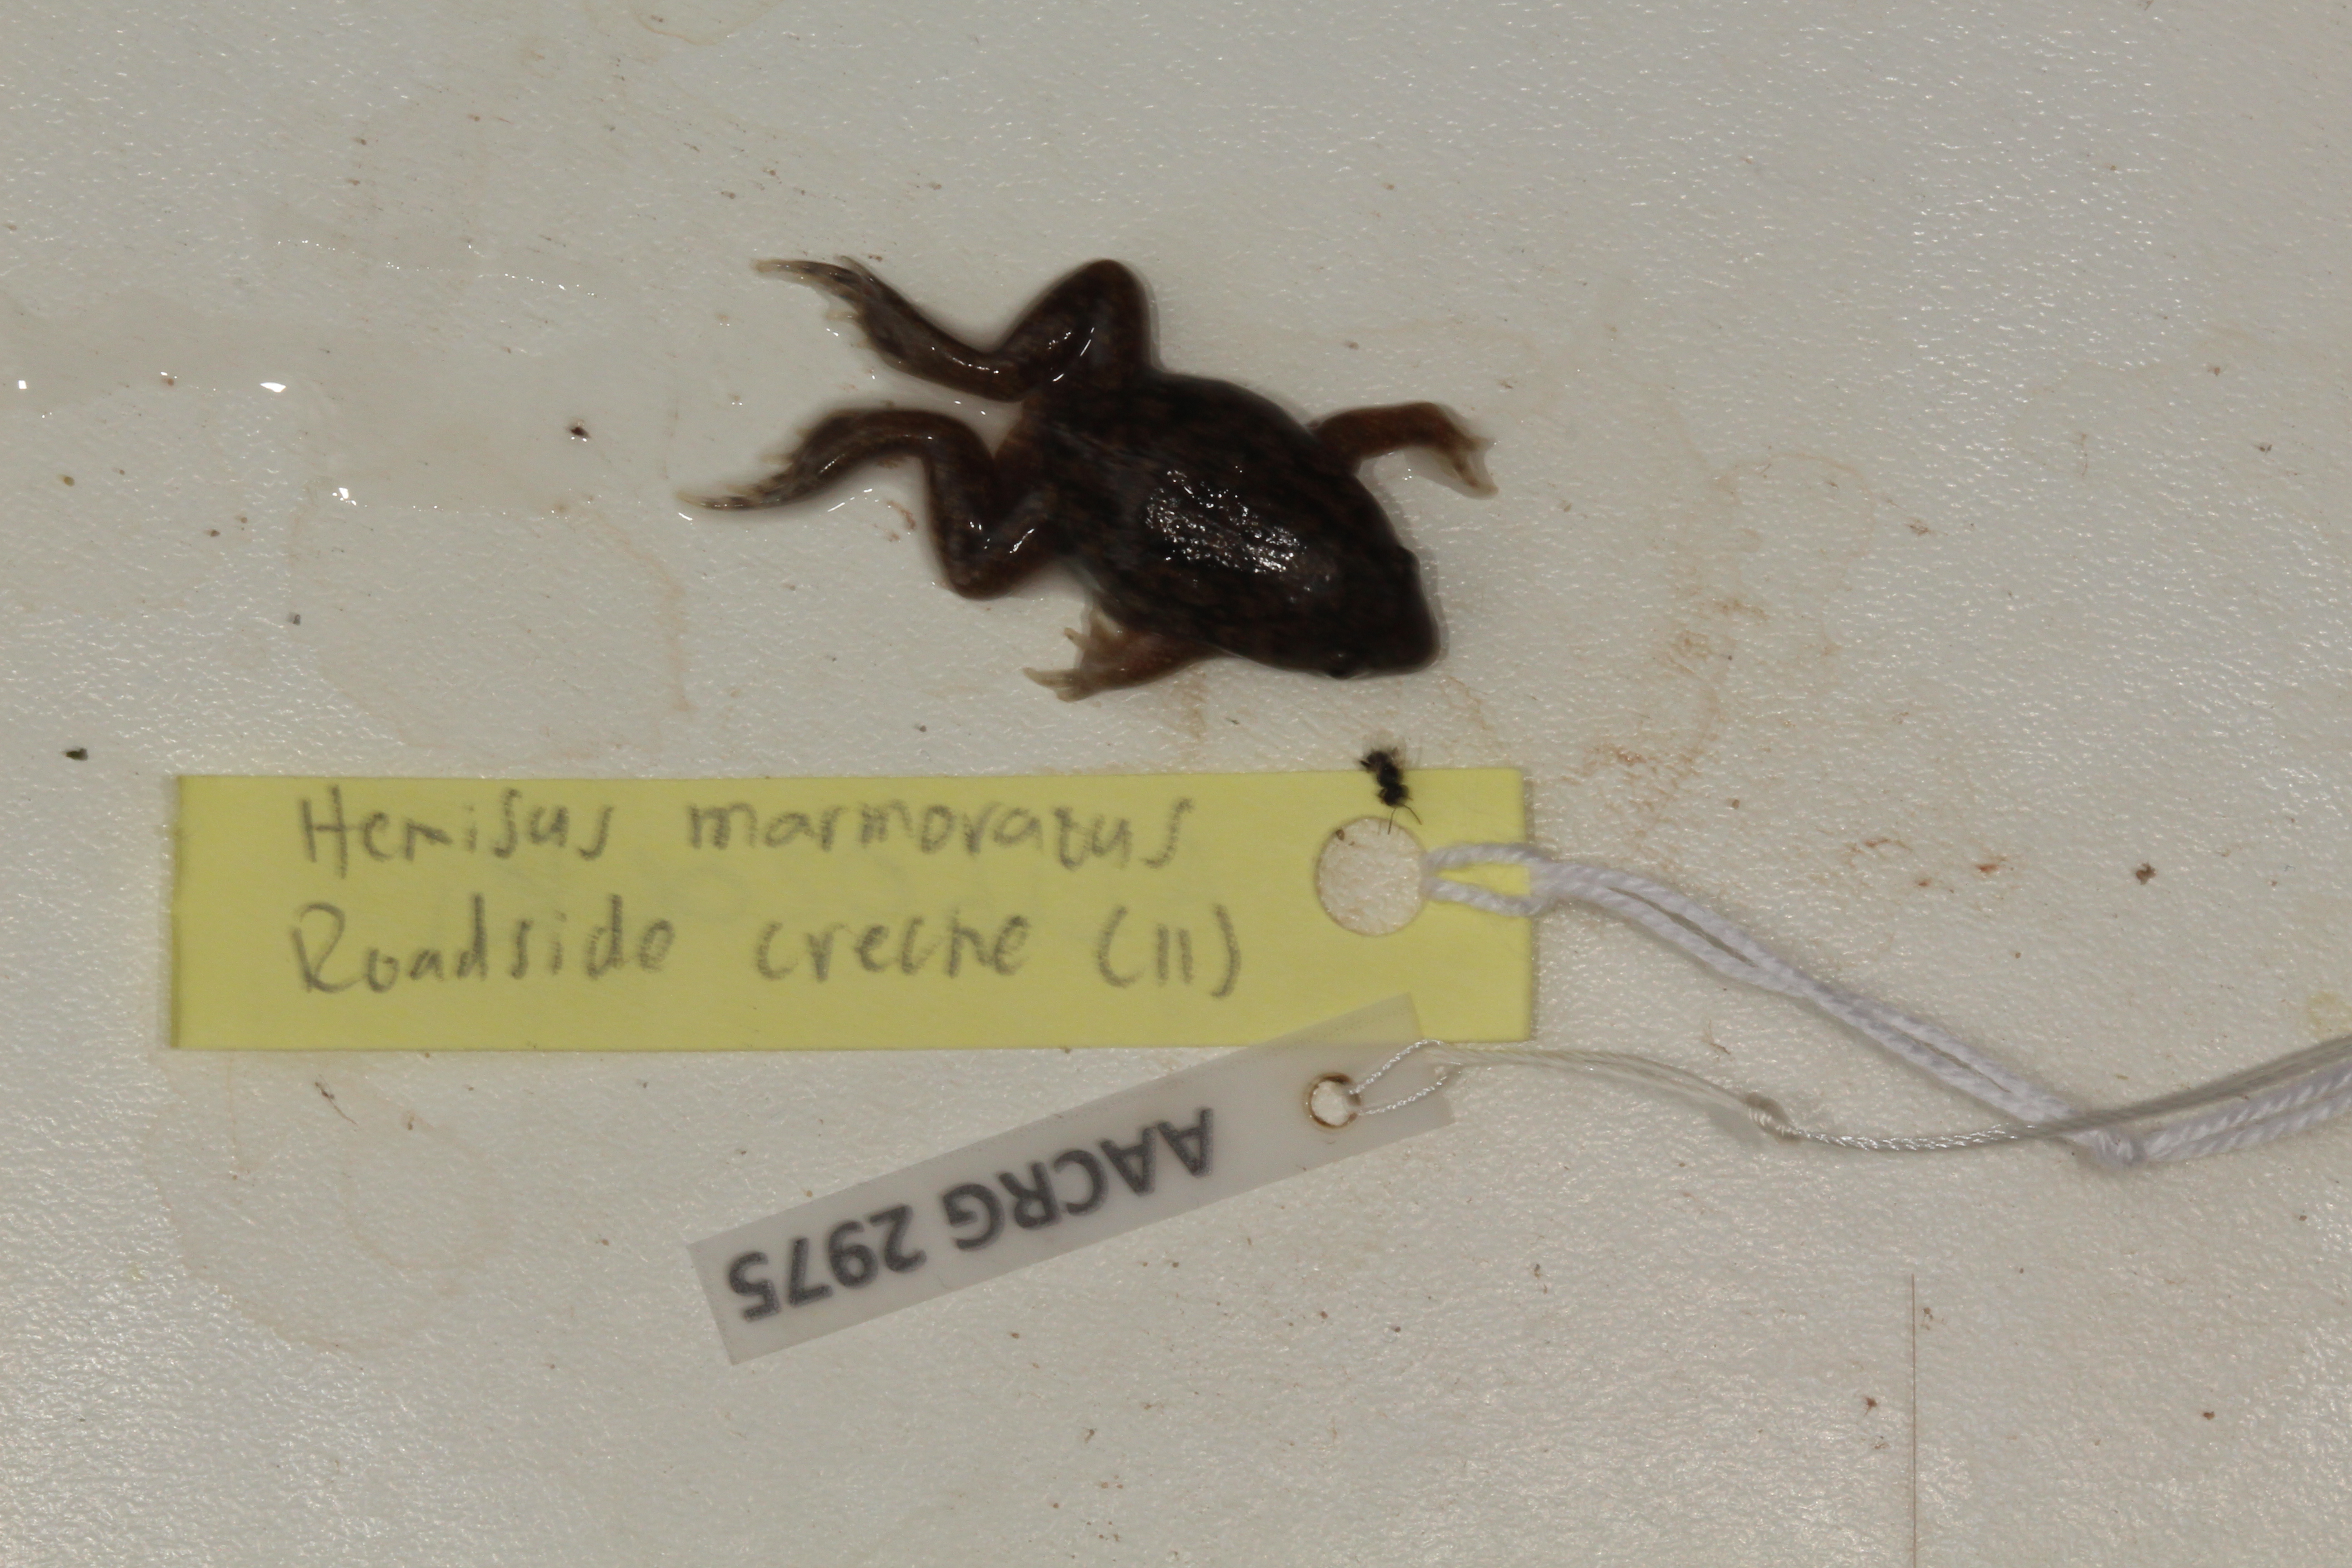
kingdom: Animalia
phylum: Chordata
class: Amphibia
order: Anura
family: Hemisotidae
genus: Hemisus
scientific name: Hemisus marmoratus
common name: Mottled shovel-nosed frog
